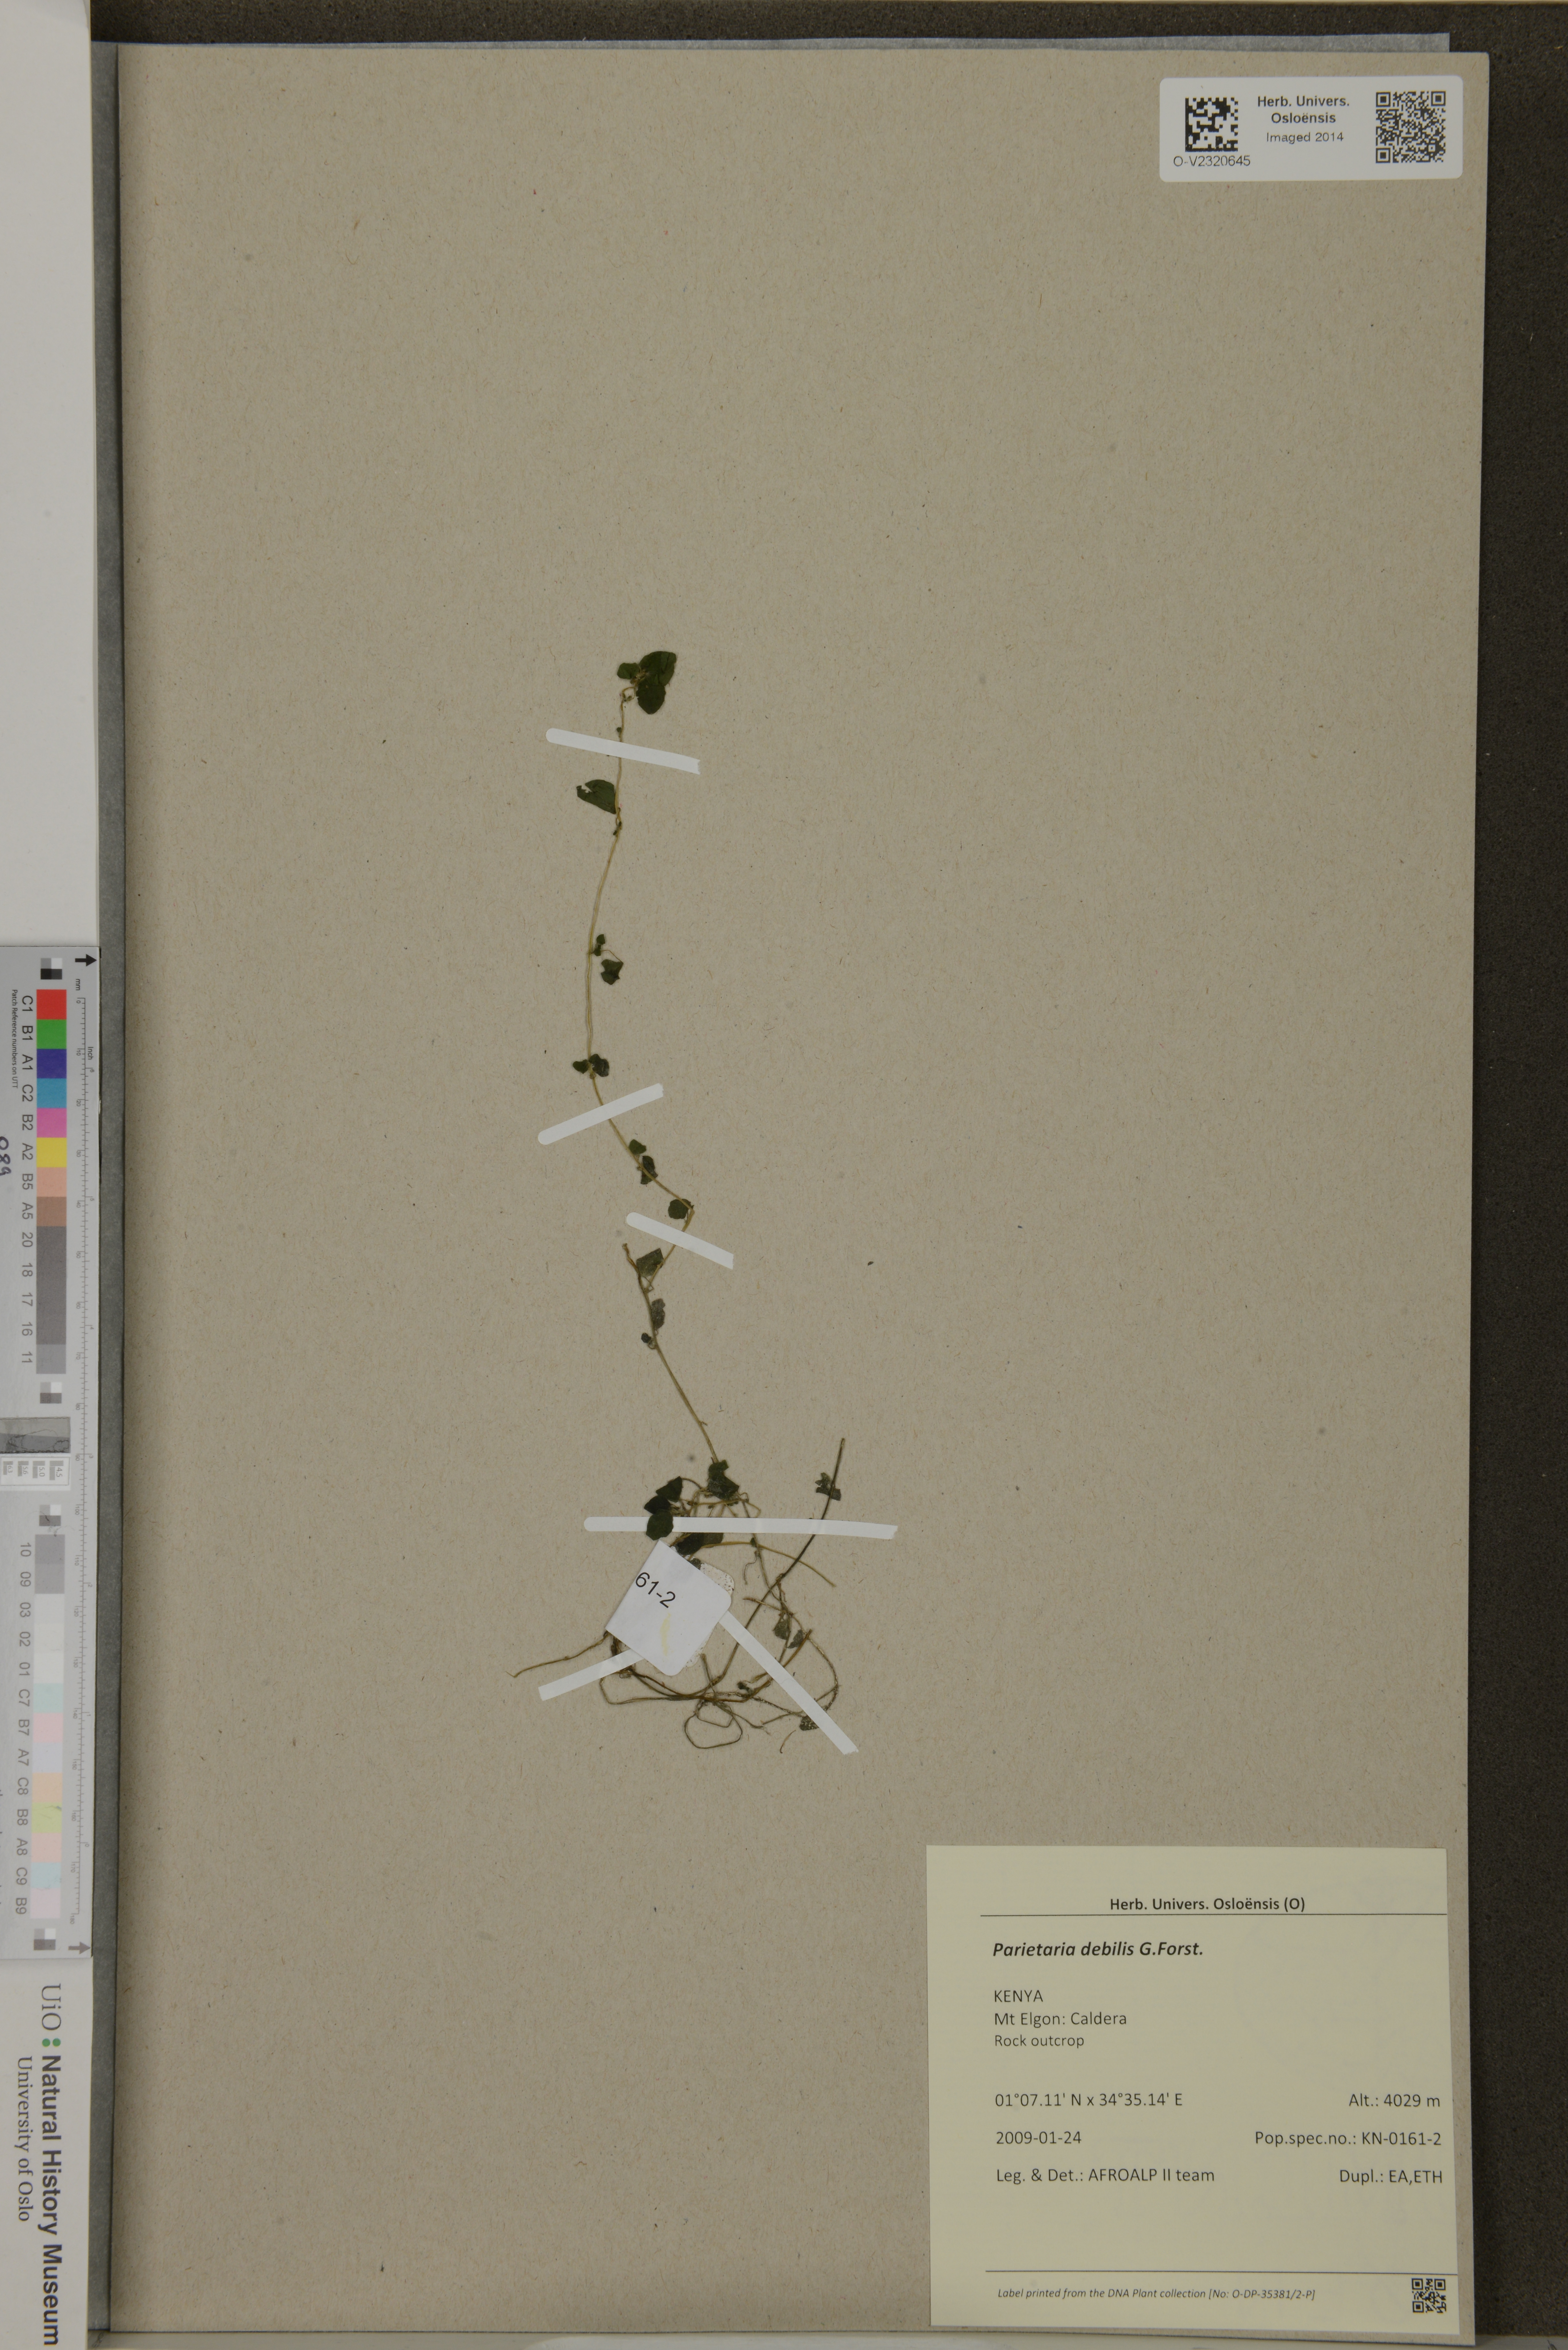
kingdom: Plantae
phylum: Tracheophyta
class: Magnoliopsida
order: Rosales
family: Urticaceae
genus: Parietaria
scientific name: Parietaria debilis
